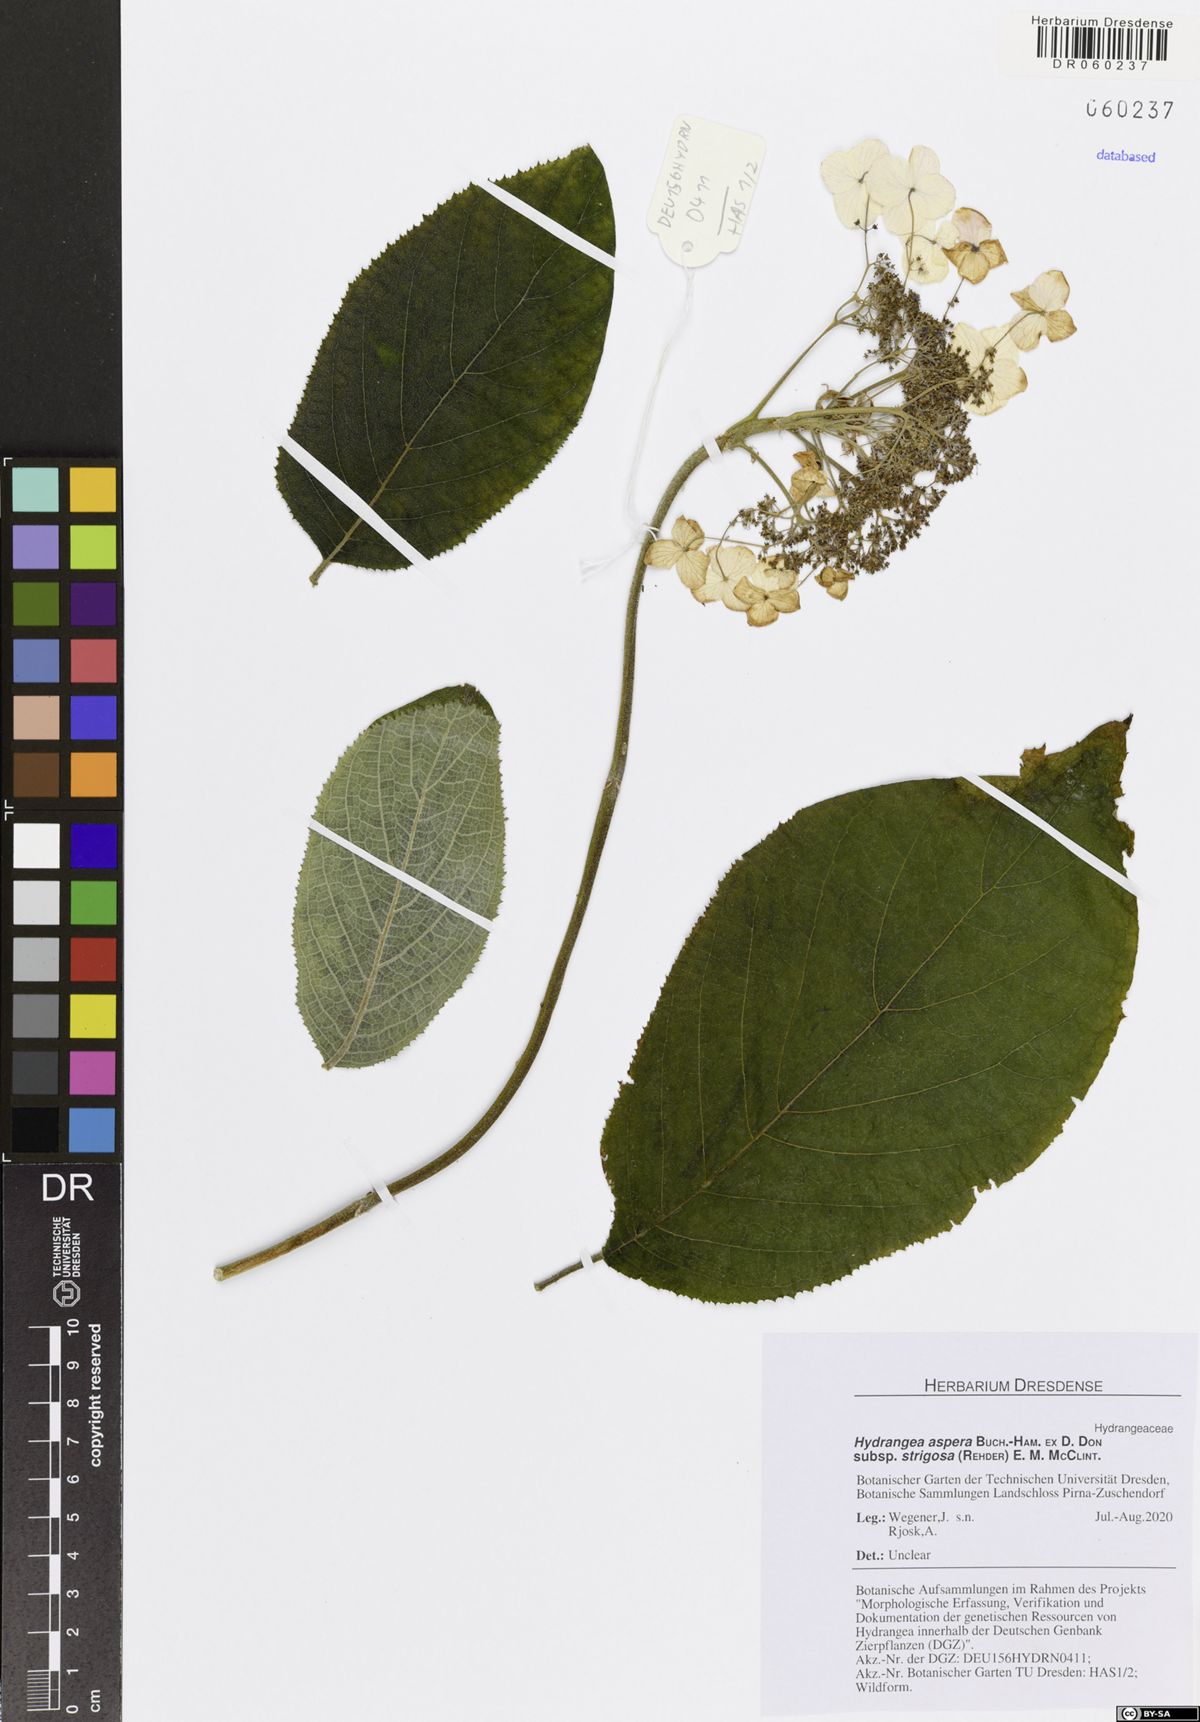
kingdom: Plantae
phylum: Tracheophyta
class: Magnoliopsida
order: Cornales
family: Hydrangeaceae
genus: Hydrangea
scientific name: Hydrangea strigosa
